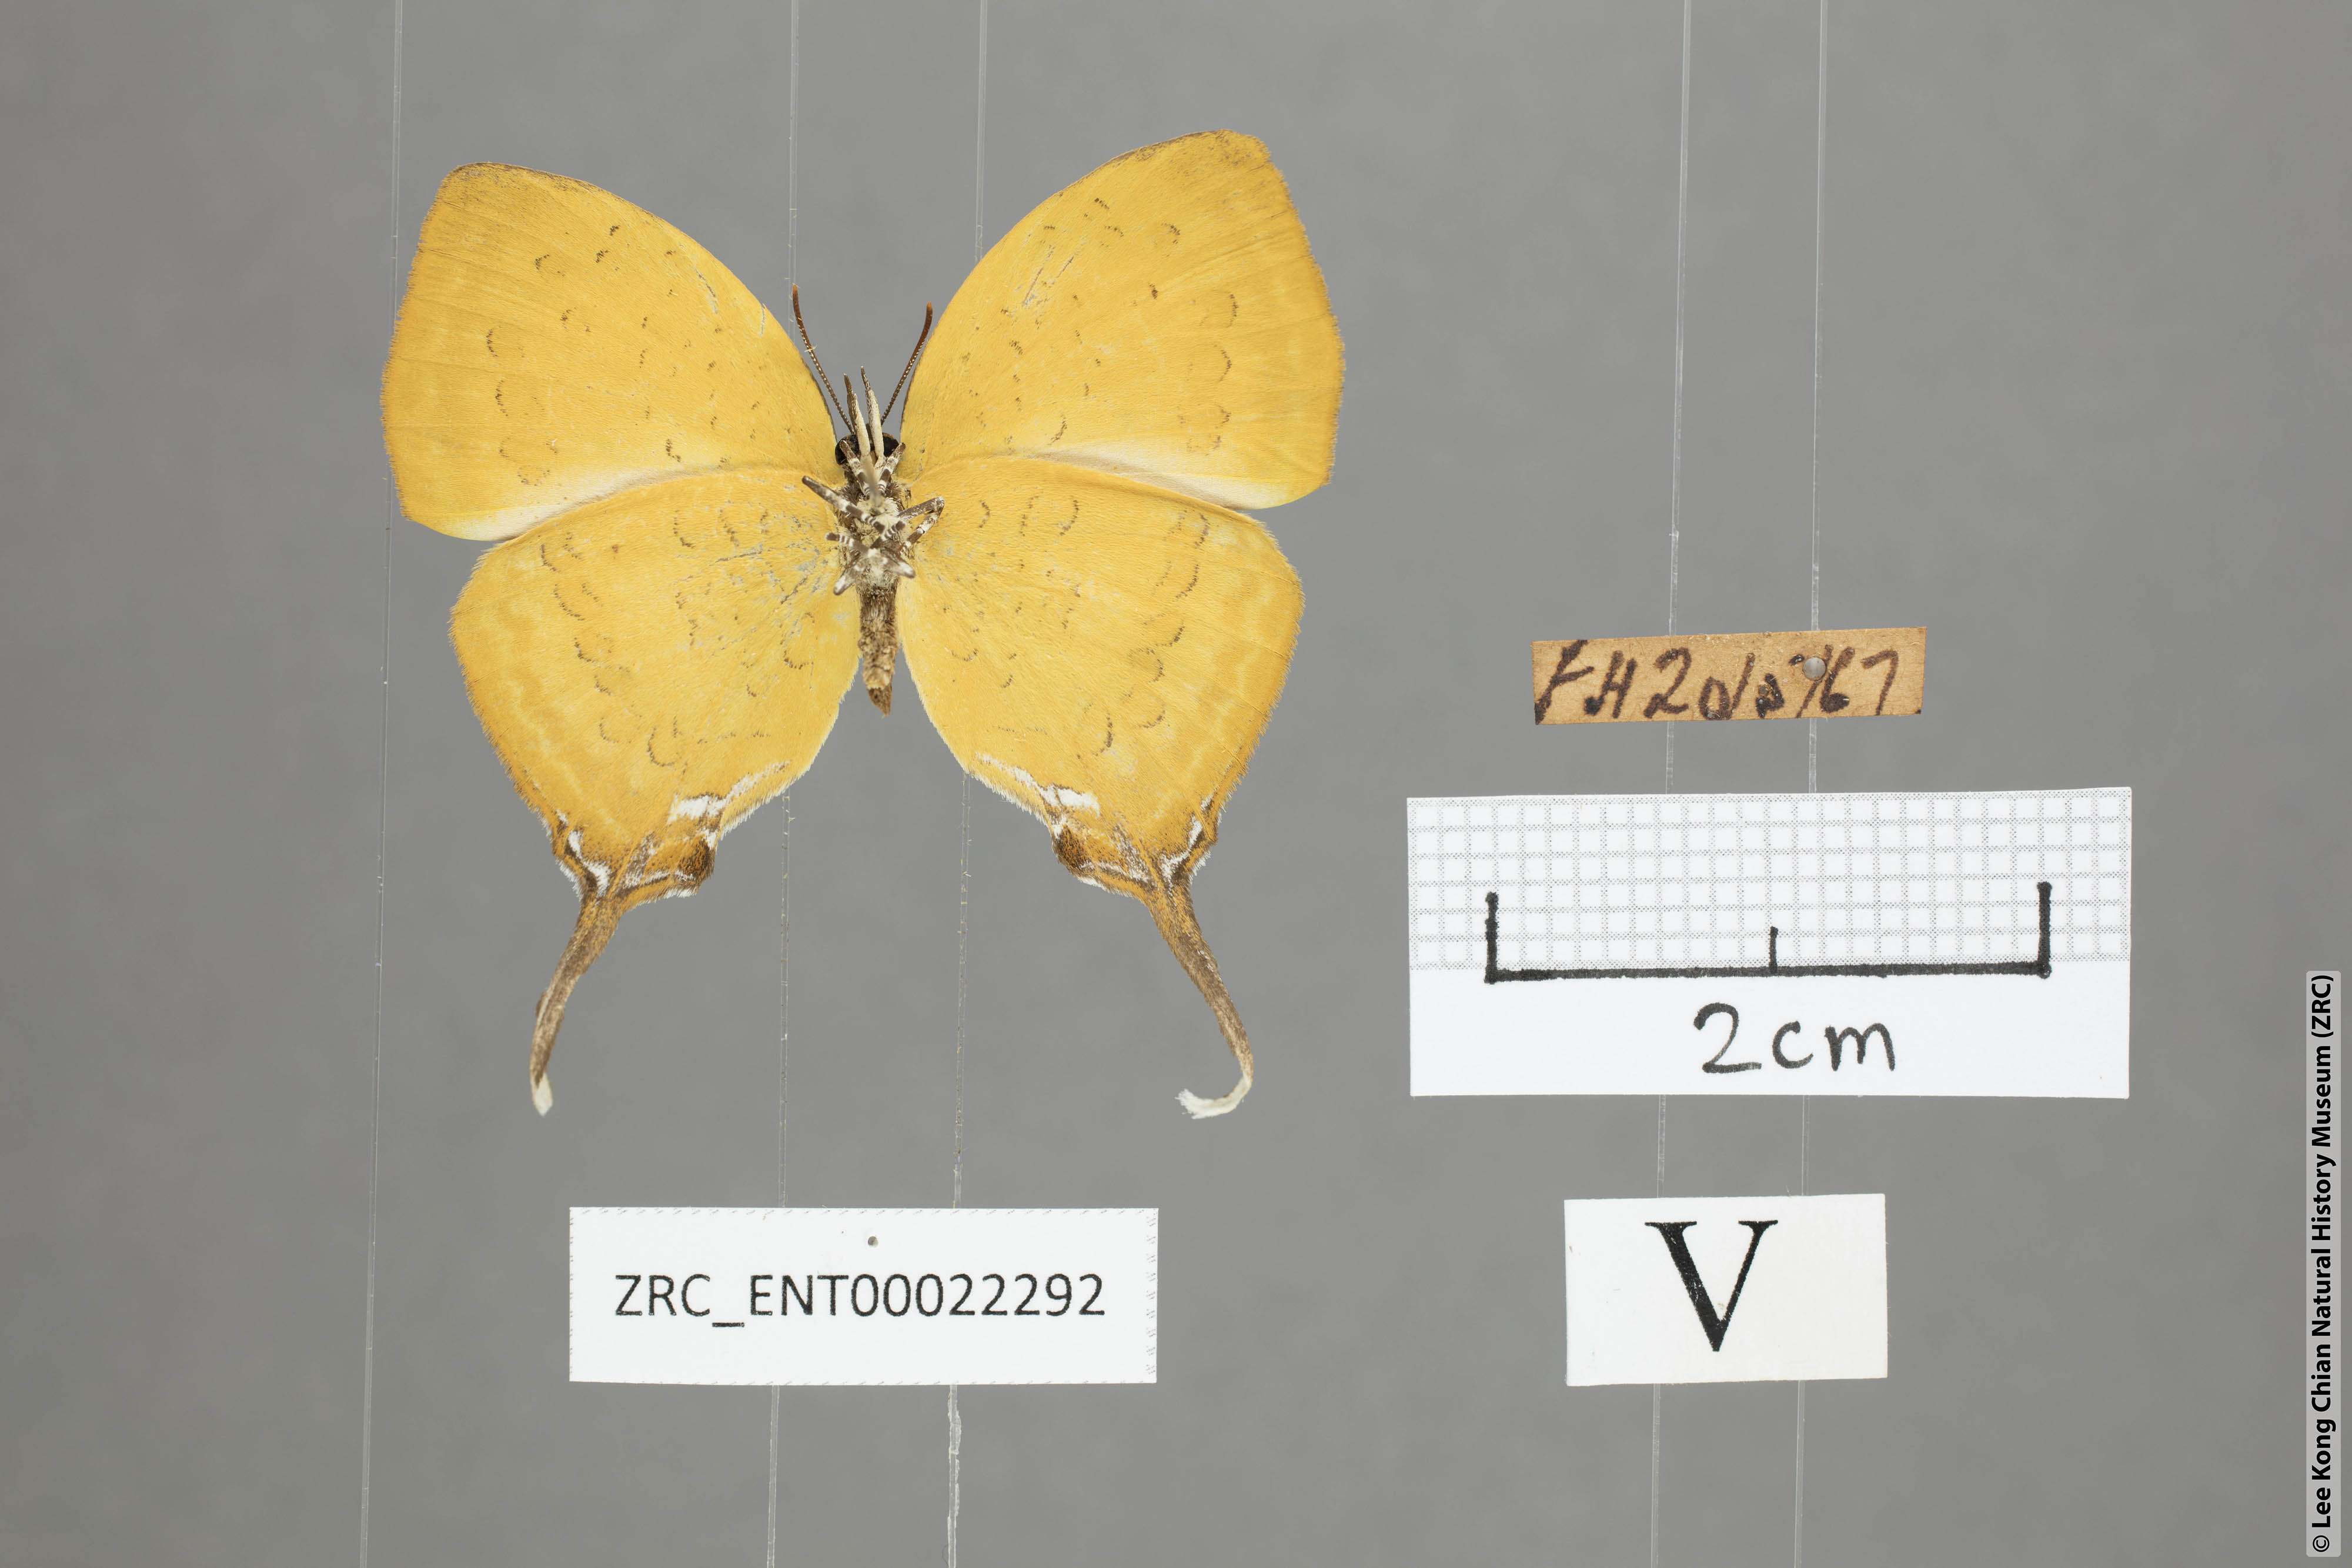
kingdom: Animalia
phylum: Arthropoda
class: Insecta
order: Lepidoptera
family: Lycaenidae
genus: Yasoda
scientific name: Yasoda pita
